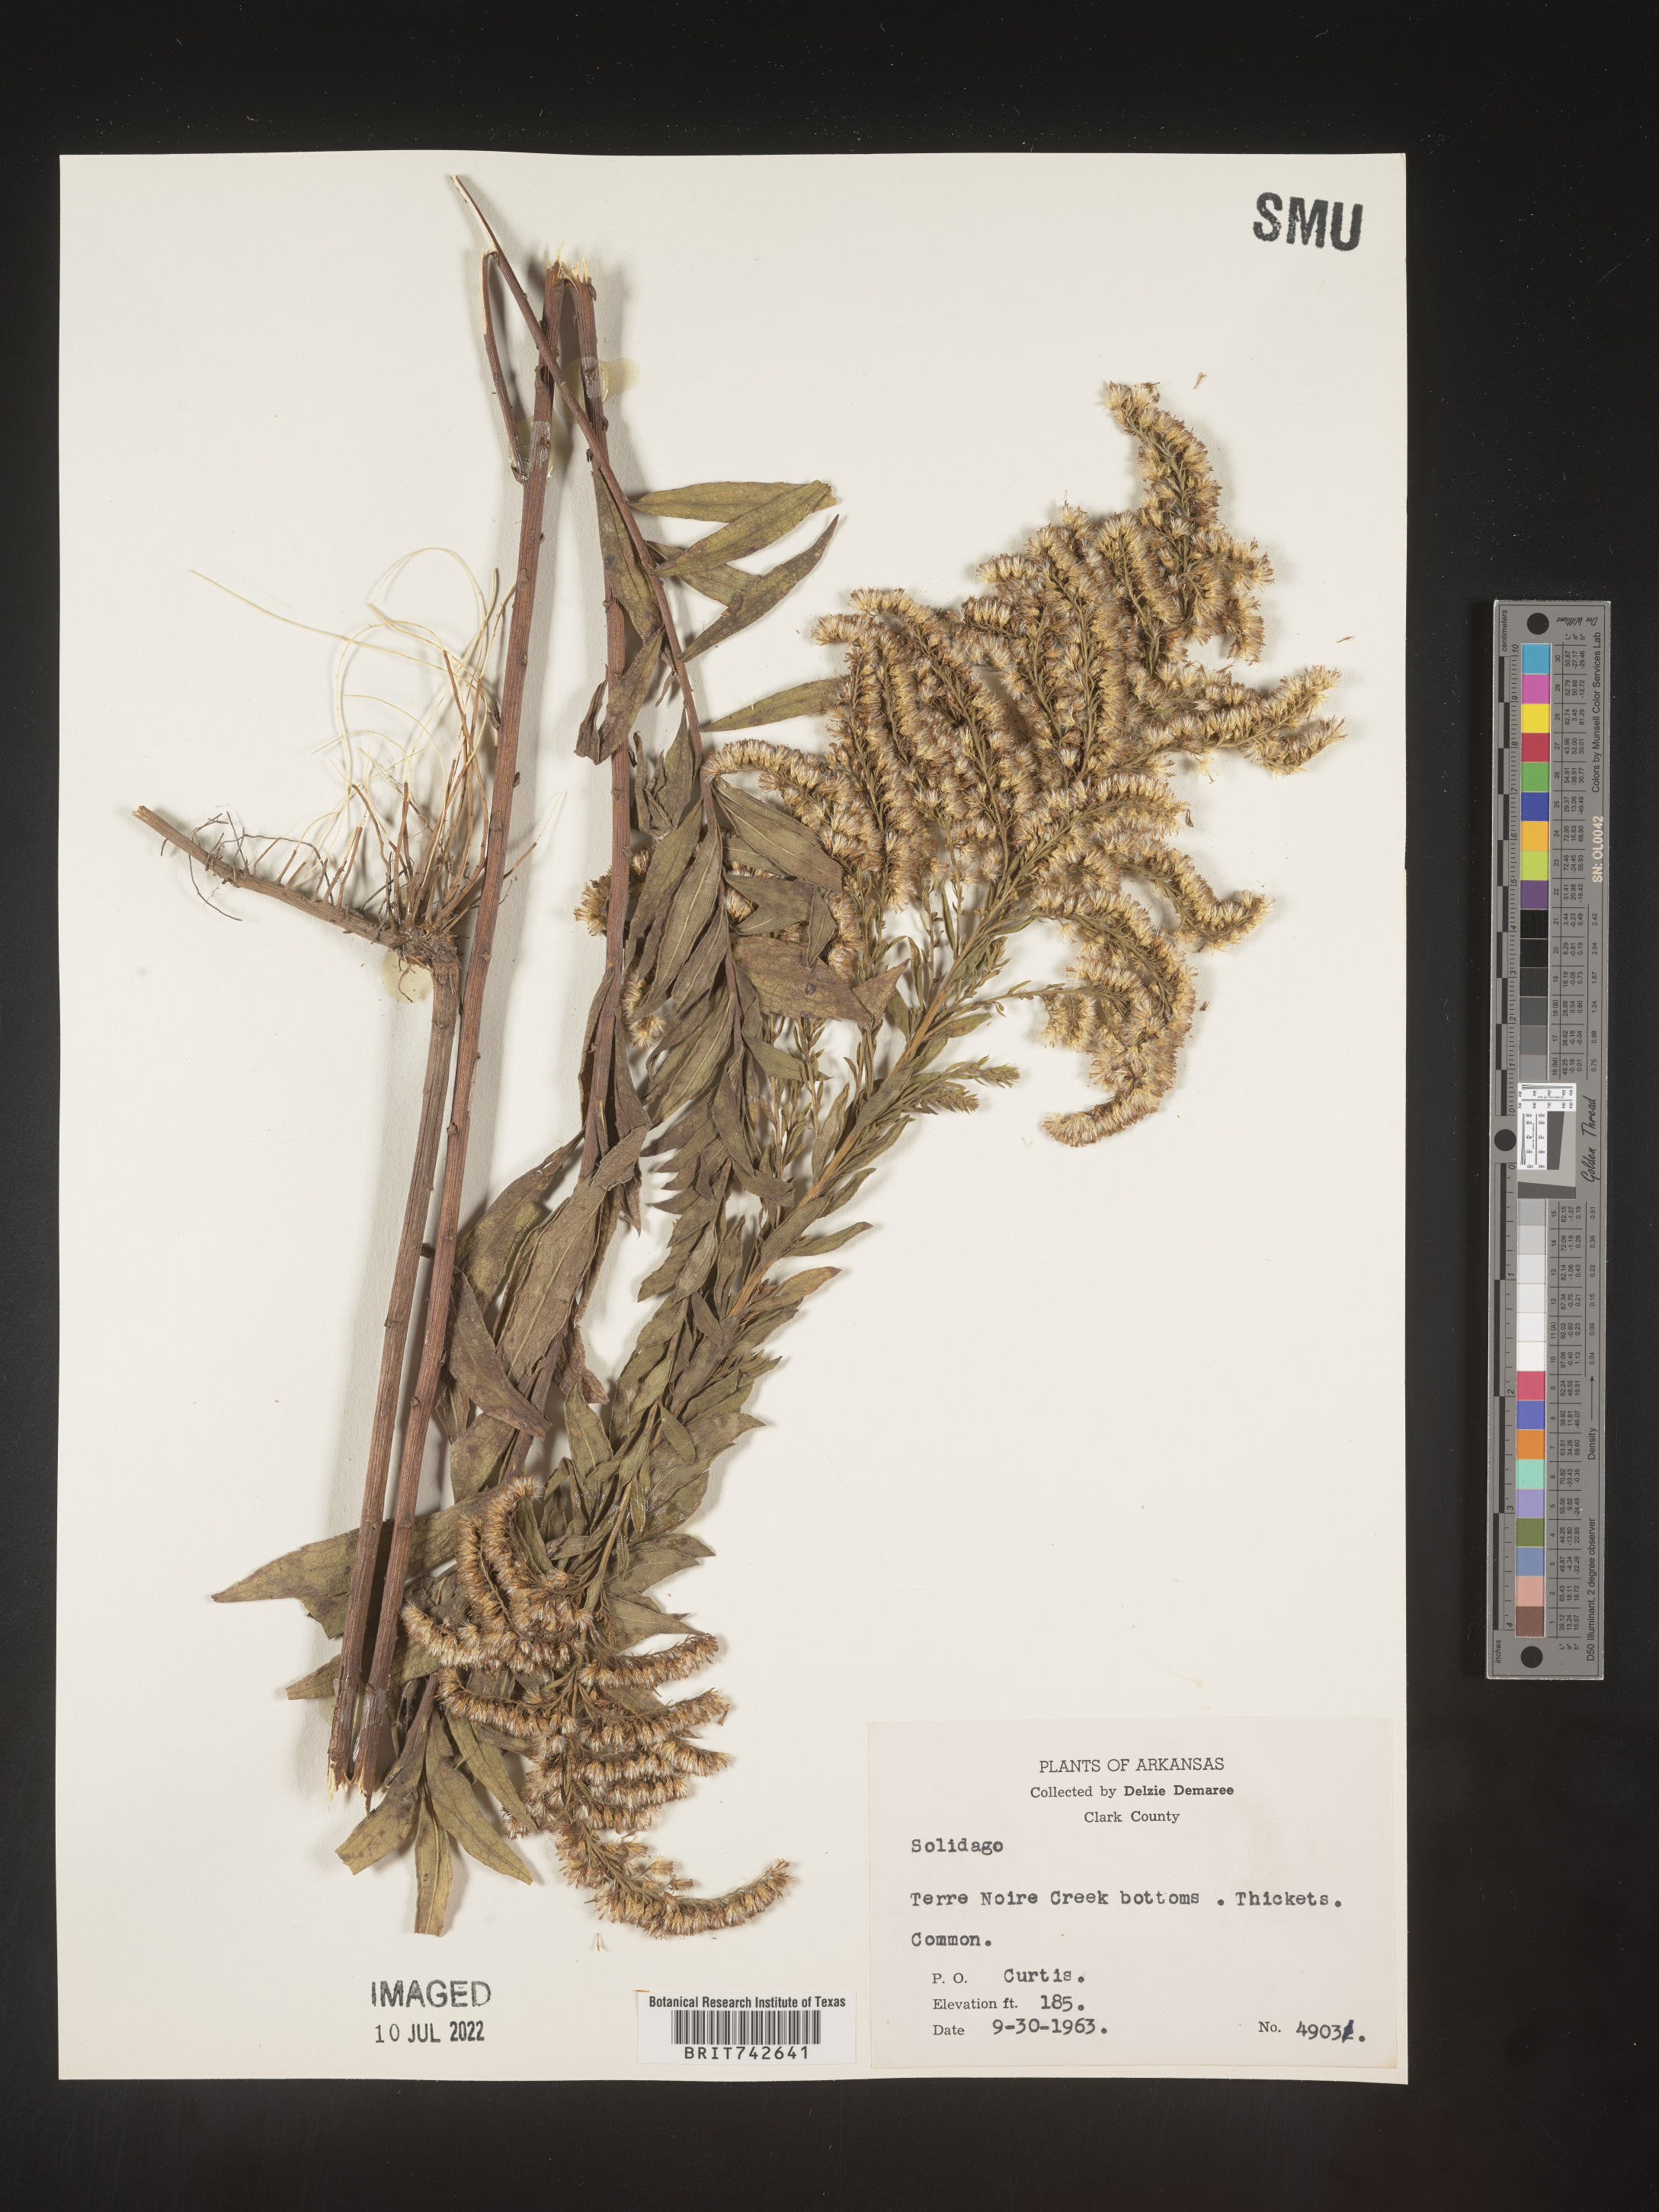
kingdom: Plantae
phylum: Tracheophyta
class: Magnoliopsida
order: Asterales
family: Asteraceae
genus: Solidago
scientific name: Solidago altissima
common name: Late goldenrod
